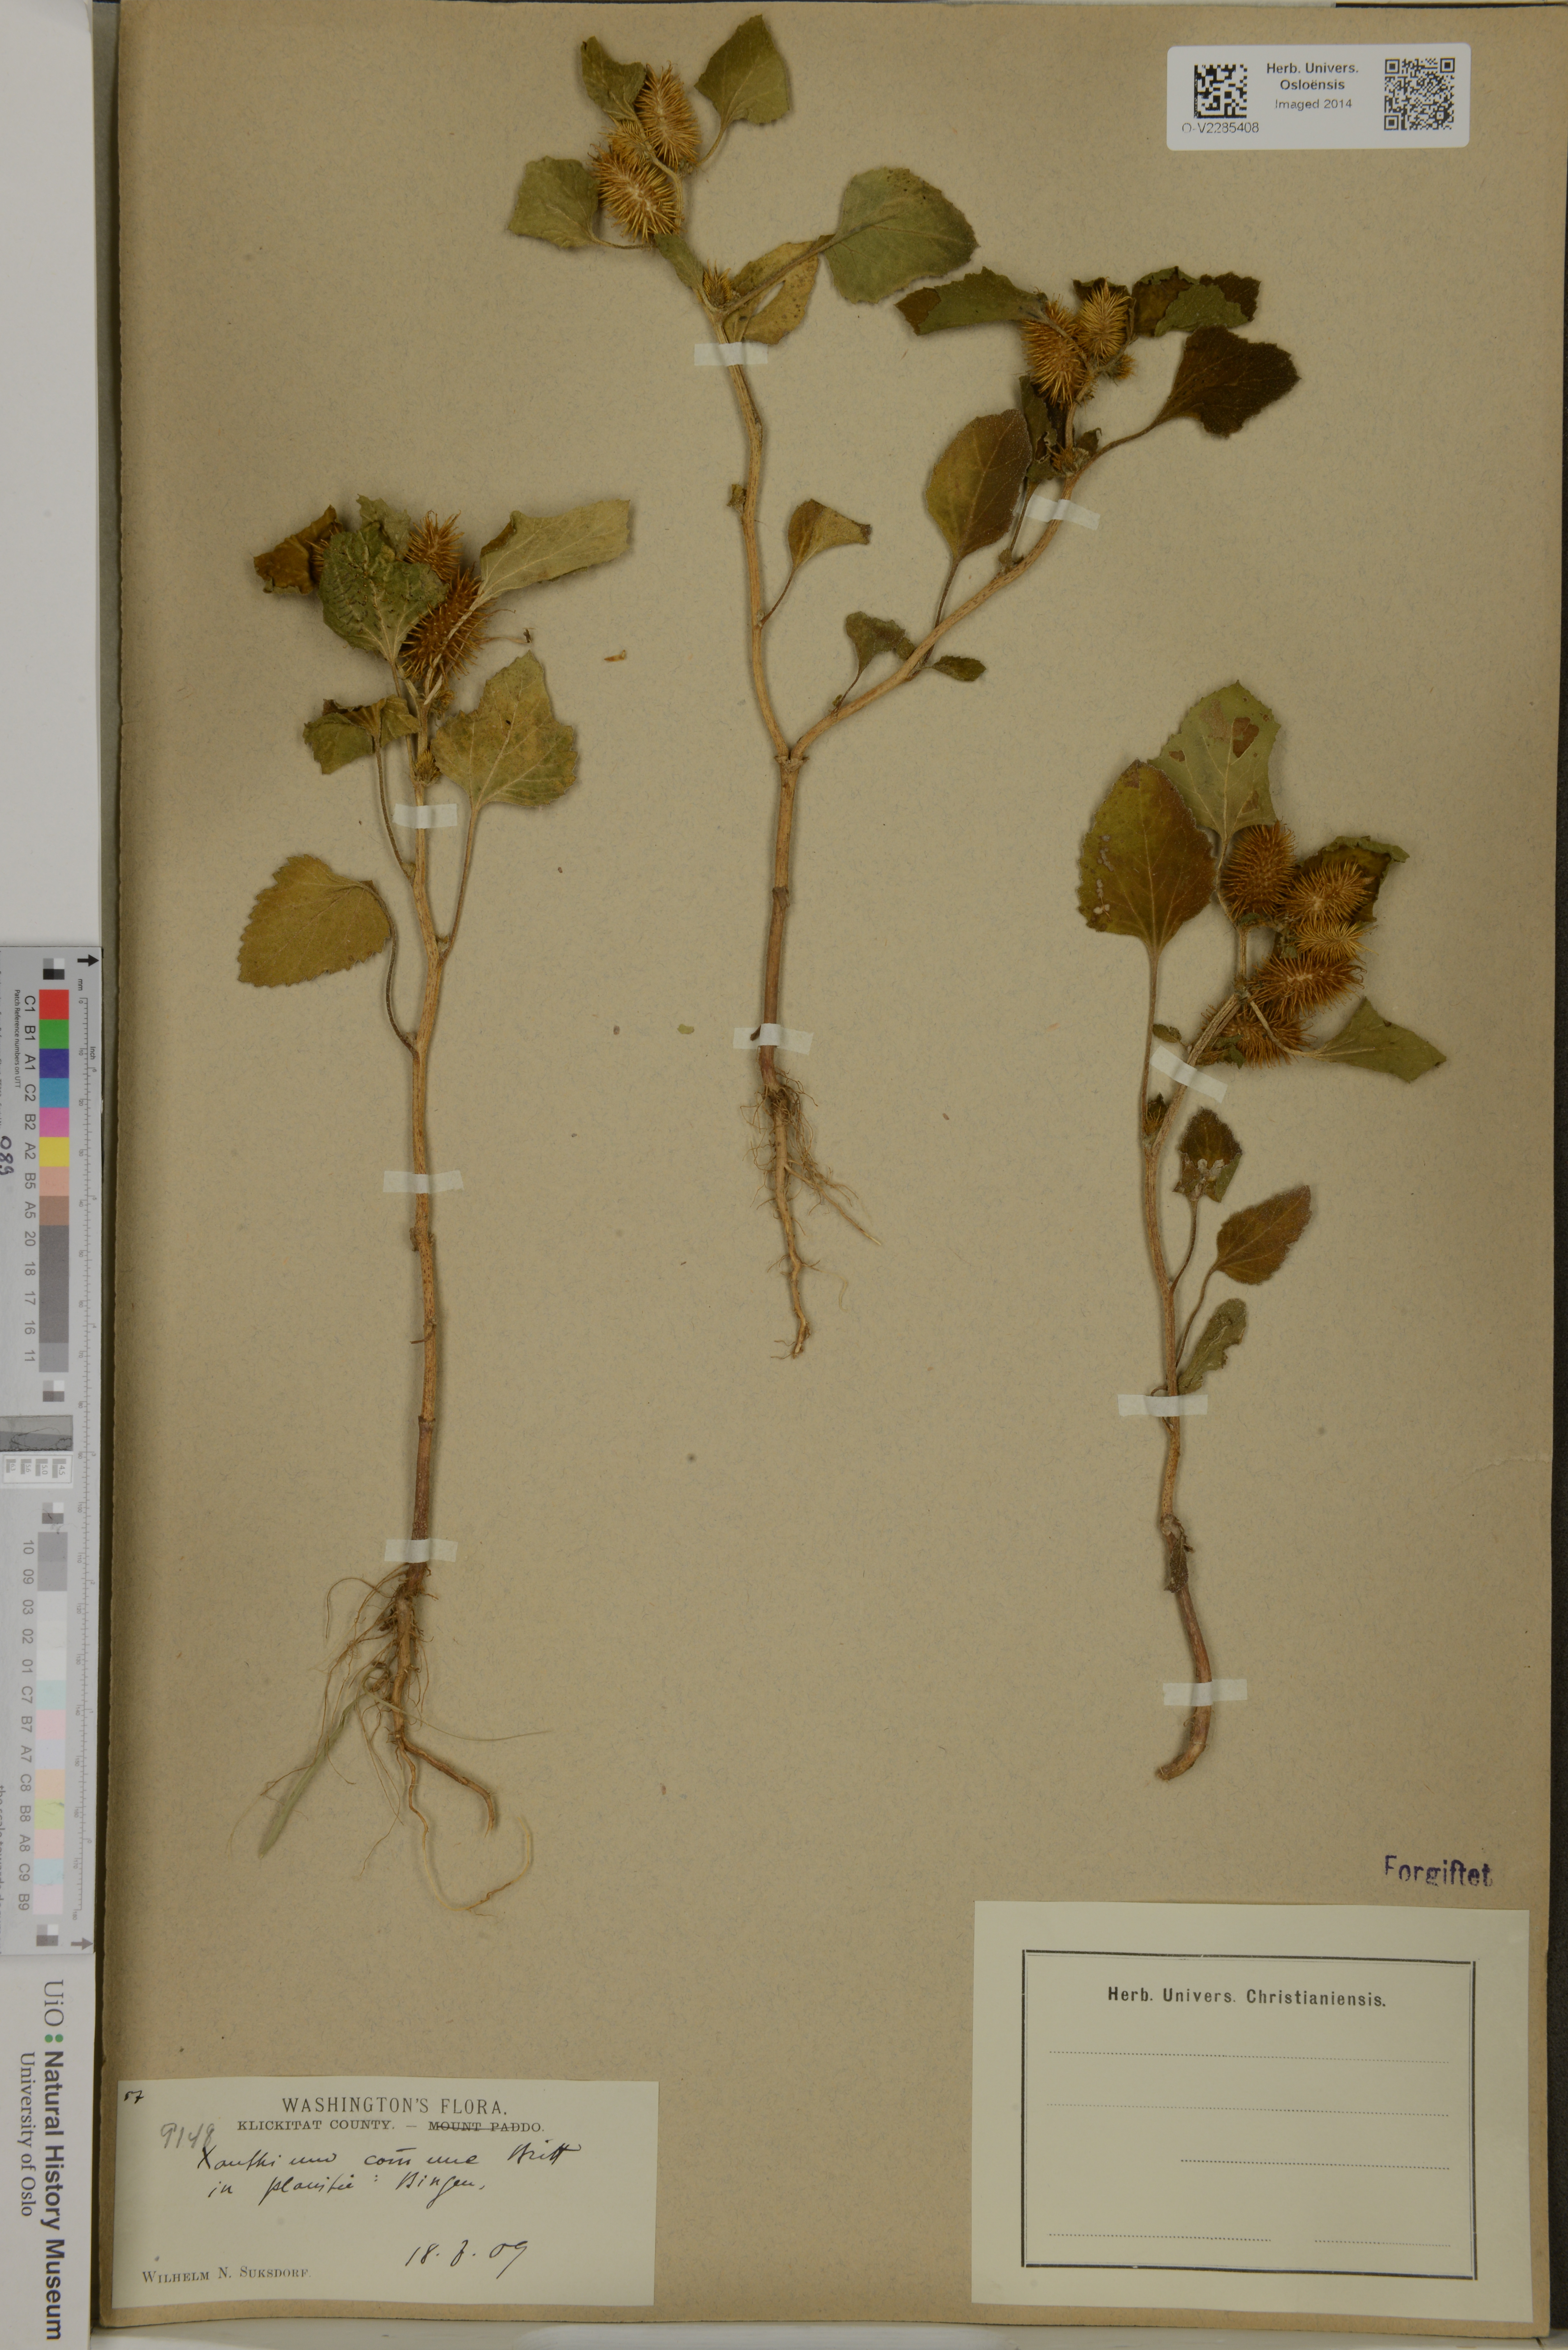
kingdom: Plantae
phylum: Tracheophyta
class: Magnoliopsida
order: Asterales
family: Asteraceae
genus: Xanthium
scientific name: Xanthium orientale
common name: Californian burr
